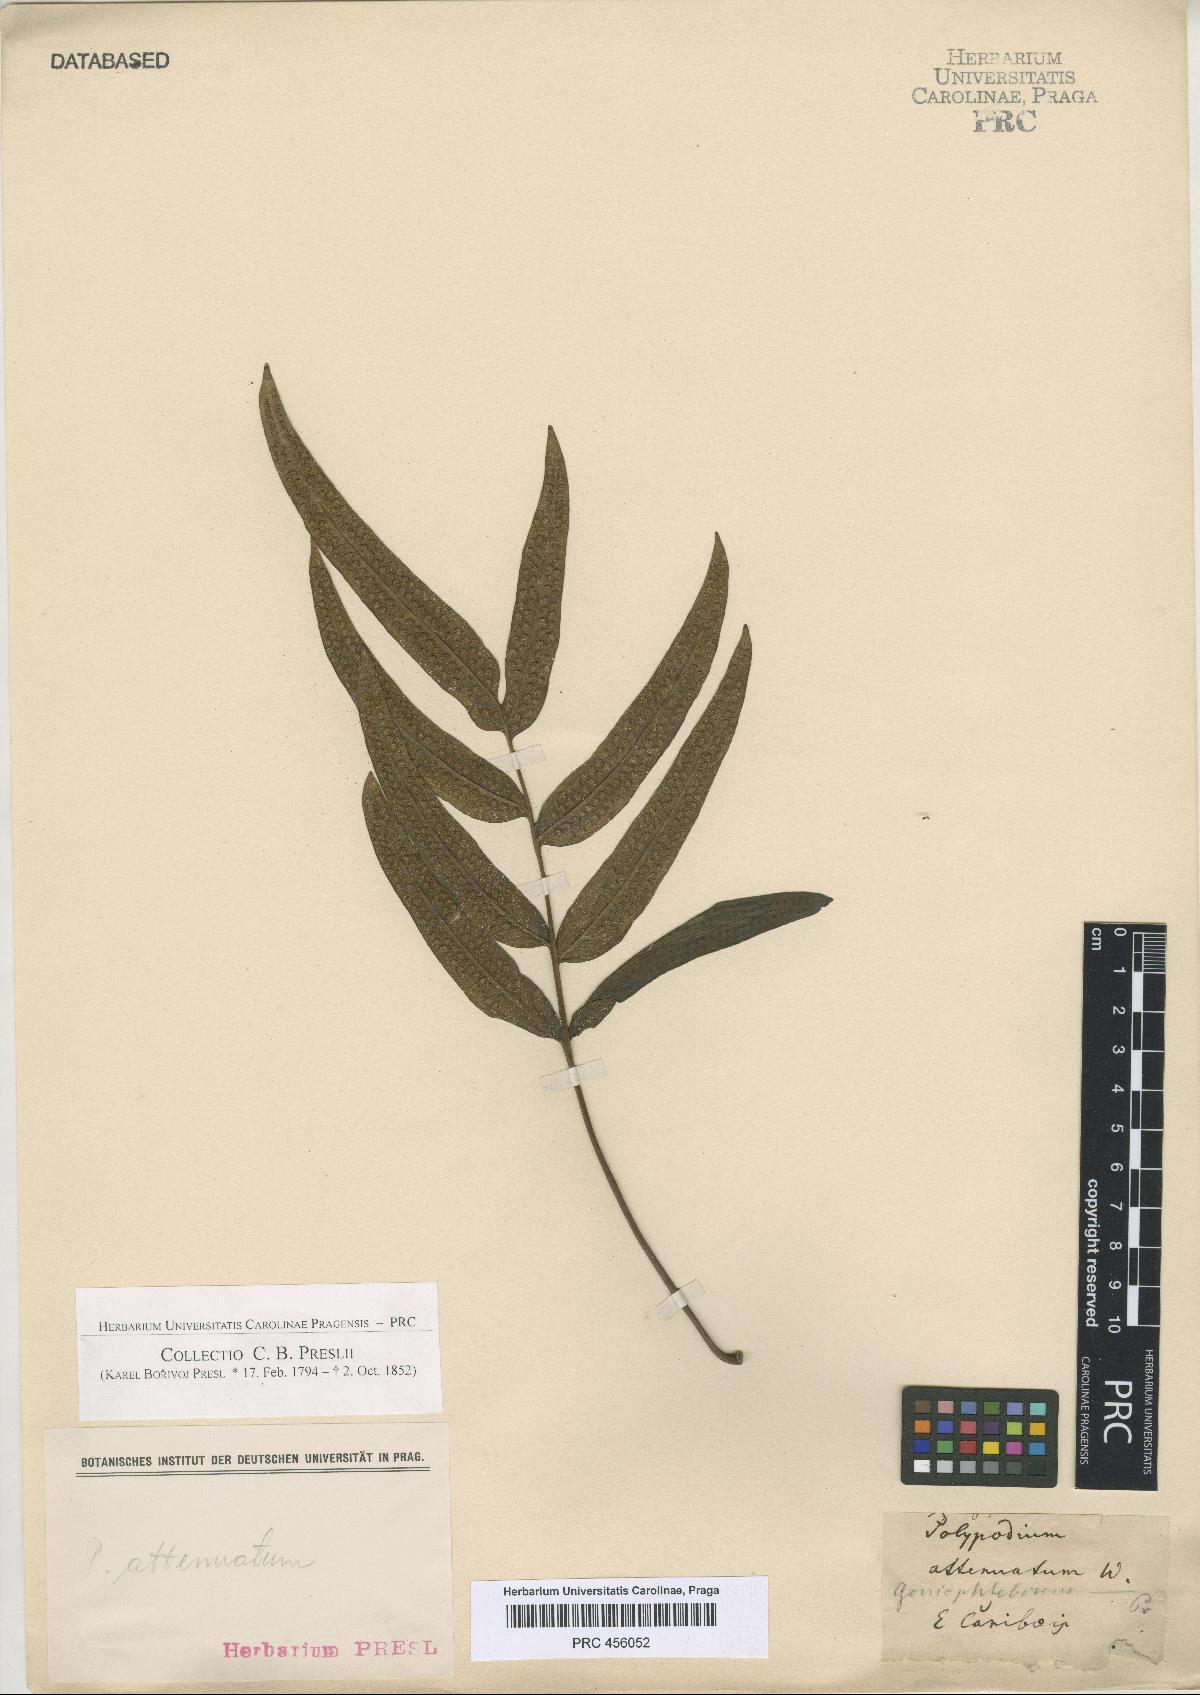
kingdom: Plantae
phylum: Tracheophyta
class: Polypodiopsida
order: Polypodiales
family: Polypodiaceae
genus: Goniophlebium
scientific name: Goniophlebium
